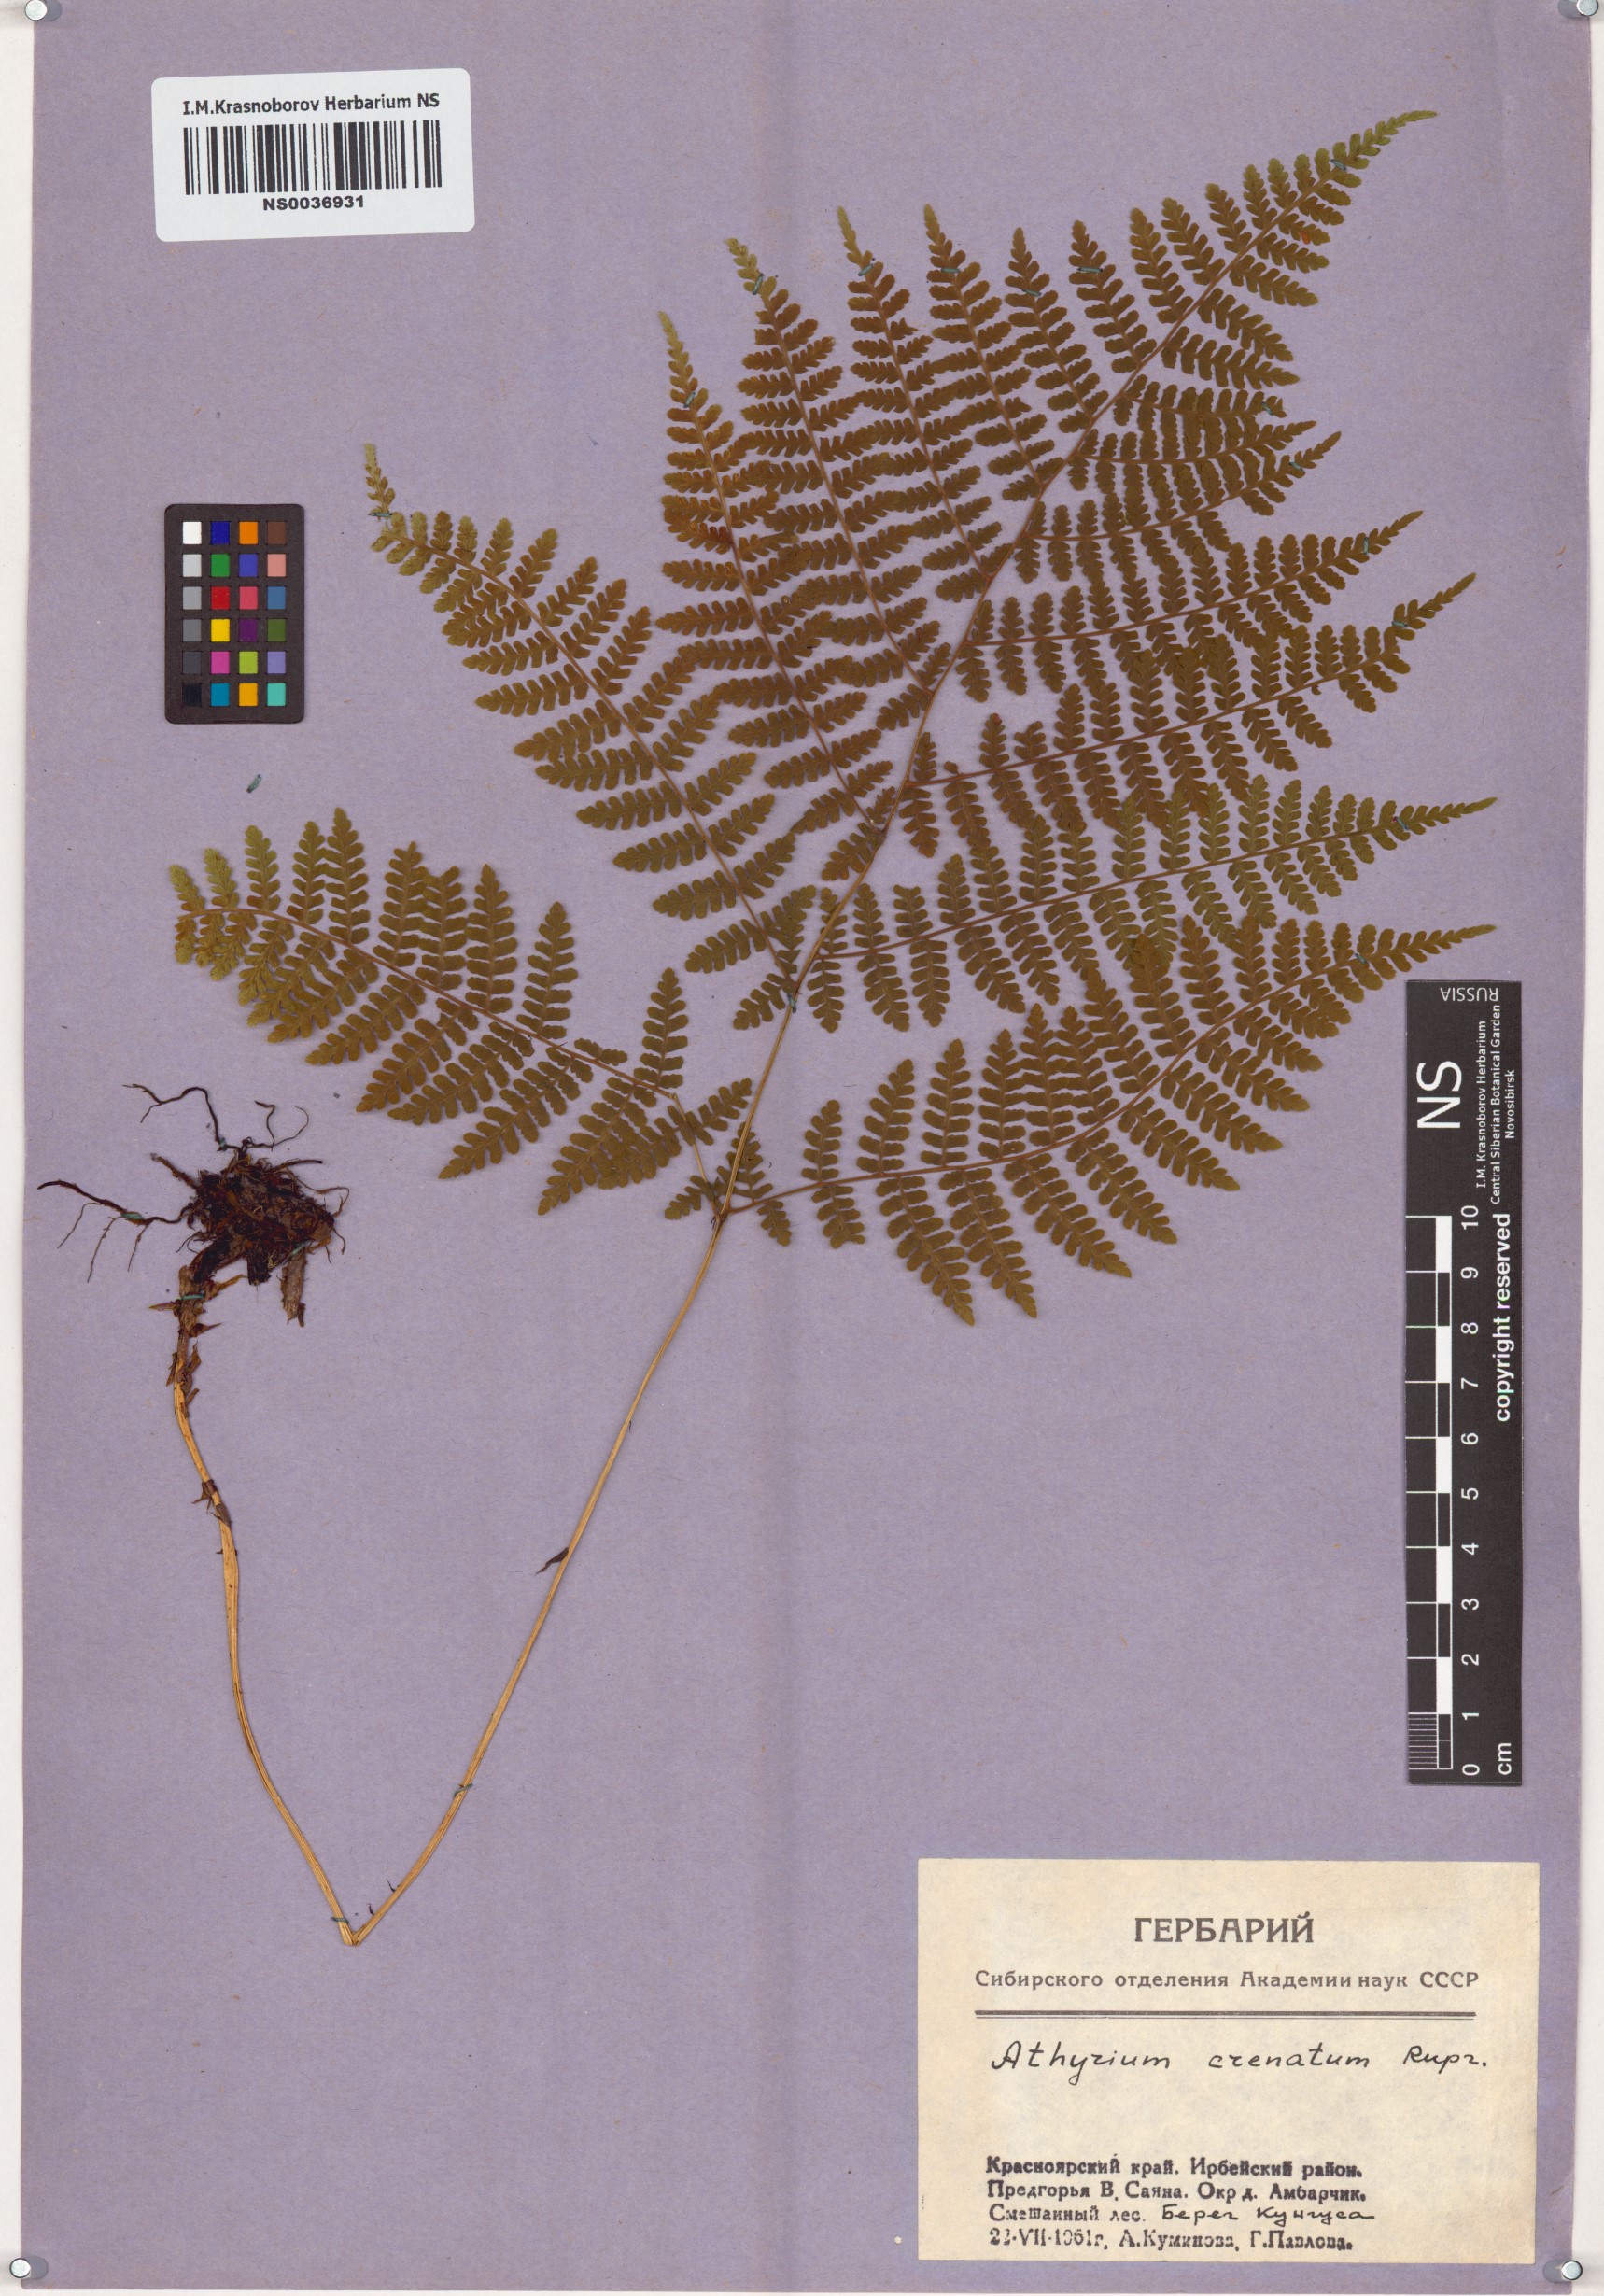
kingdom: Plantae
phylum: Tracheophyta
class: Polypodiopsida
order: Polypodiales
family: Athyriaceae
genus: Diplazium
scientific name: Diplazium sibiricum
